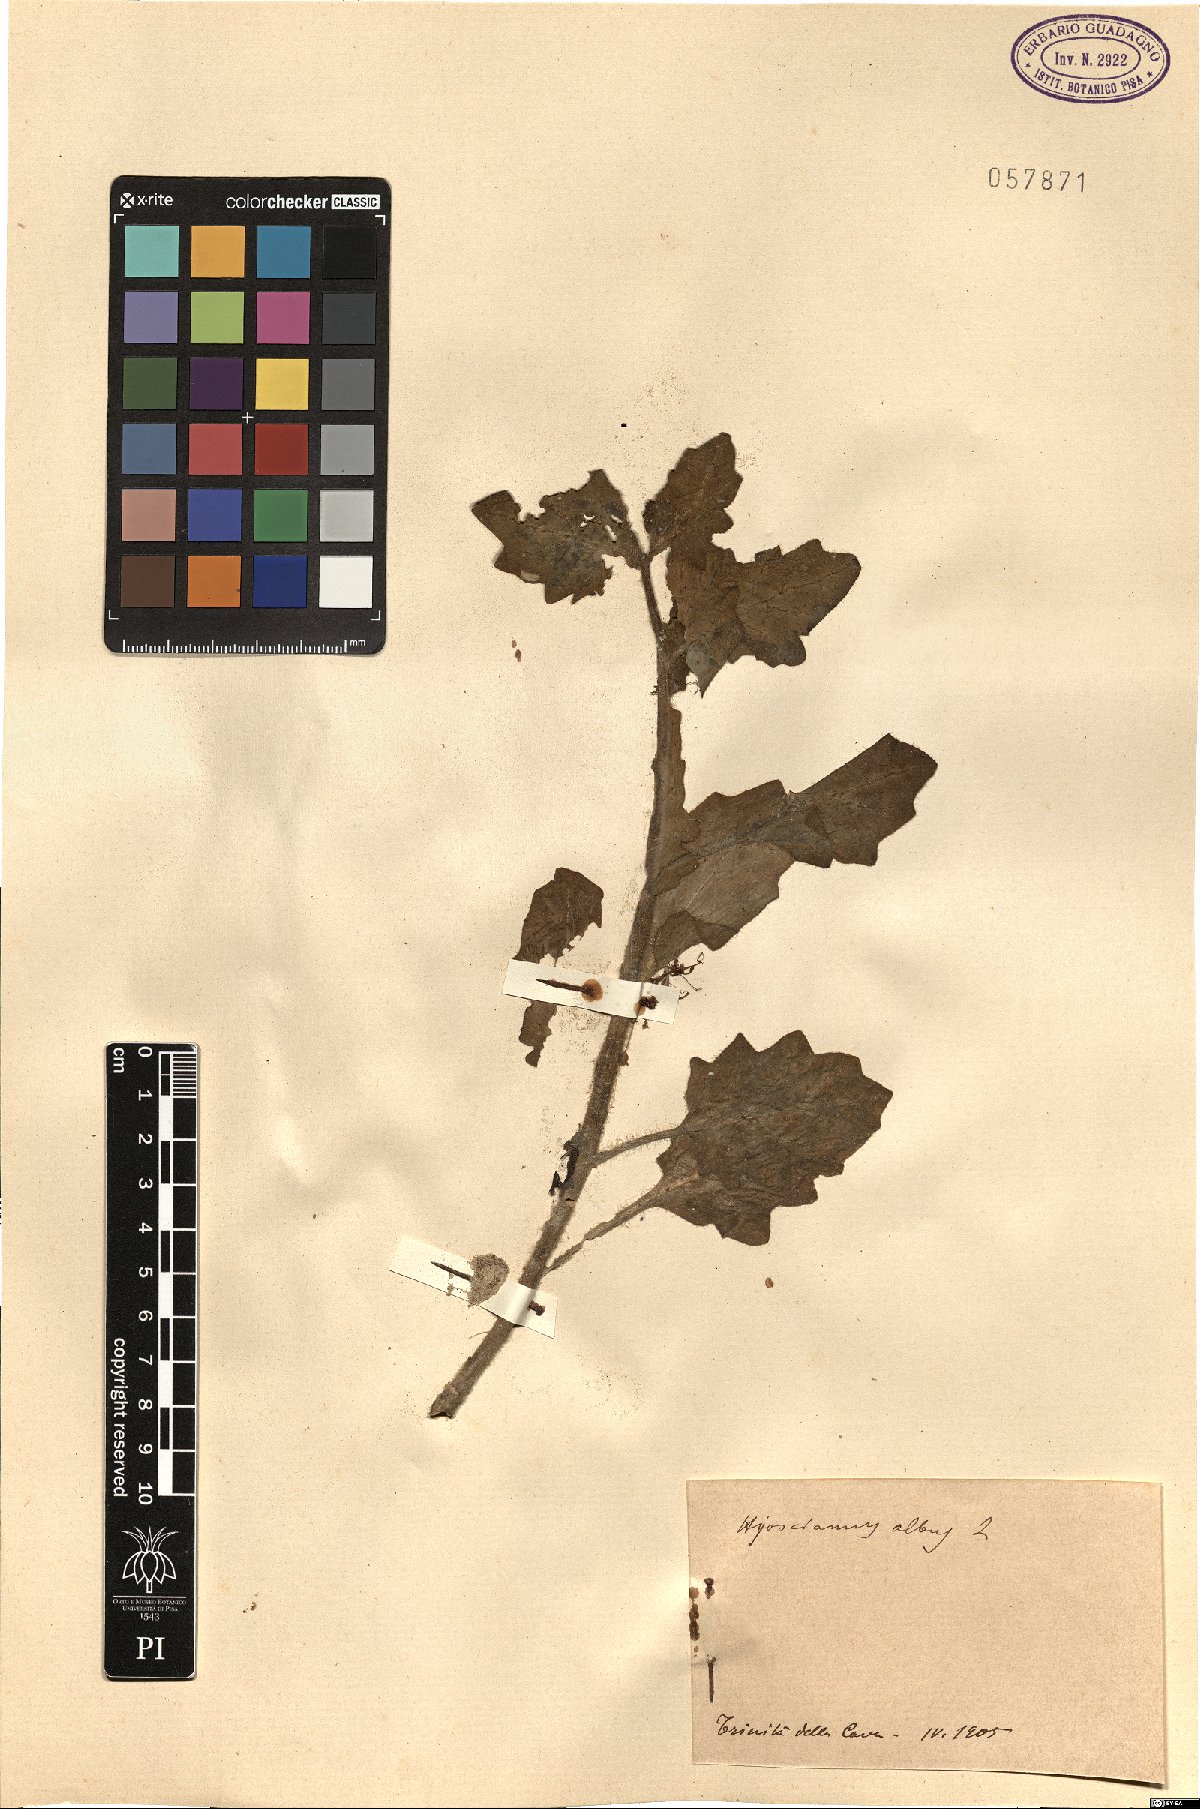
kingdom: Plantae
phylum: Tracheophyta
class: Magnoliopsida
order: Solanales
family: Solanaceae
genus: Hyoscyamus
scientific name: Hyoscyamus albus
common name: White henbane
